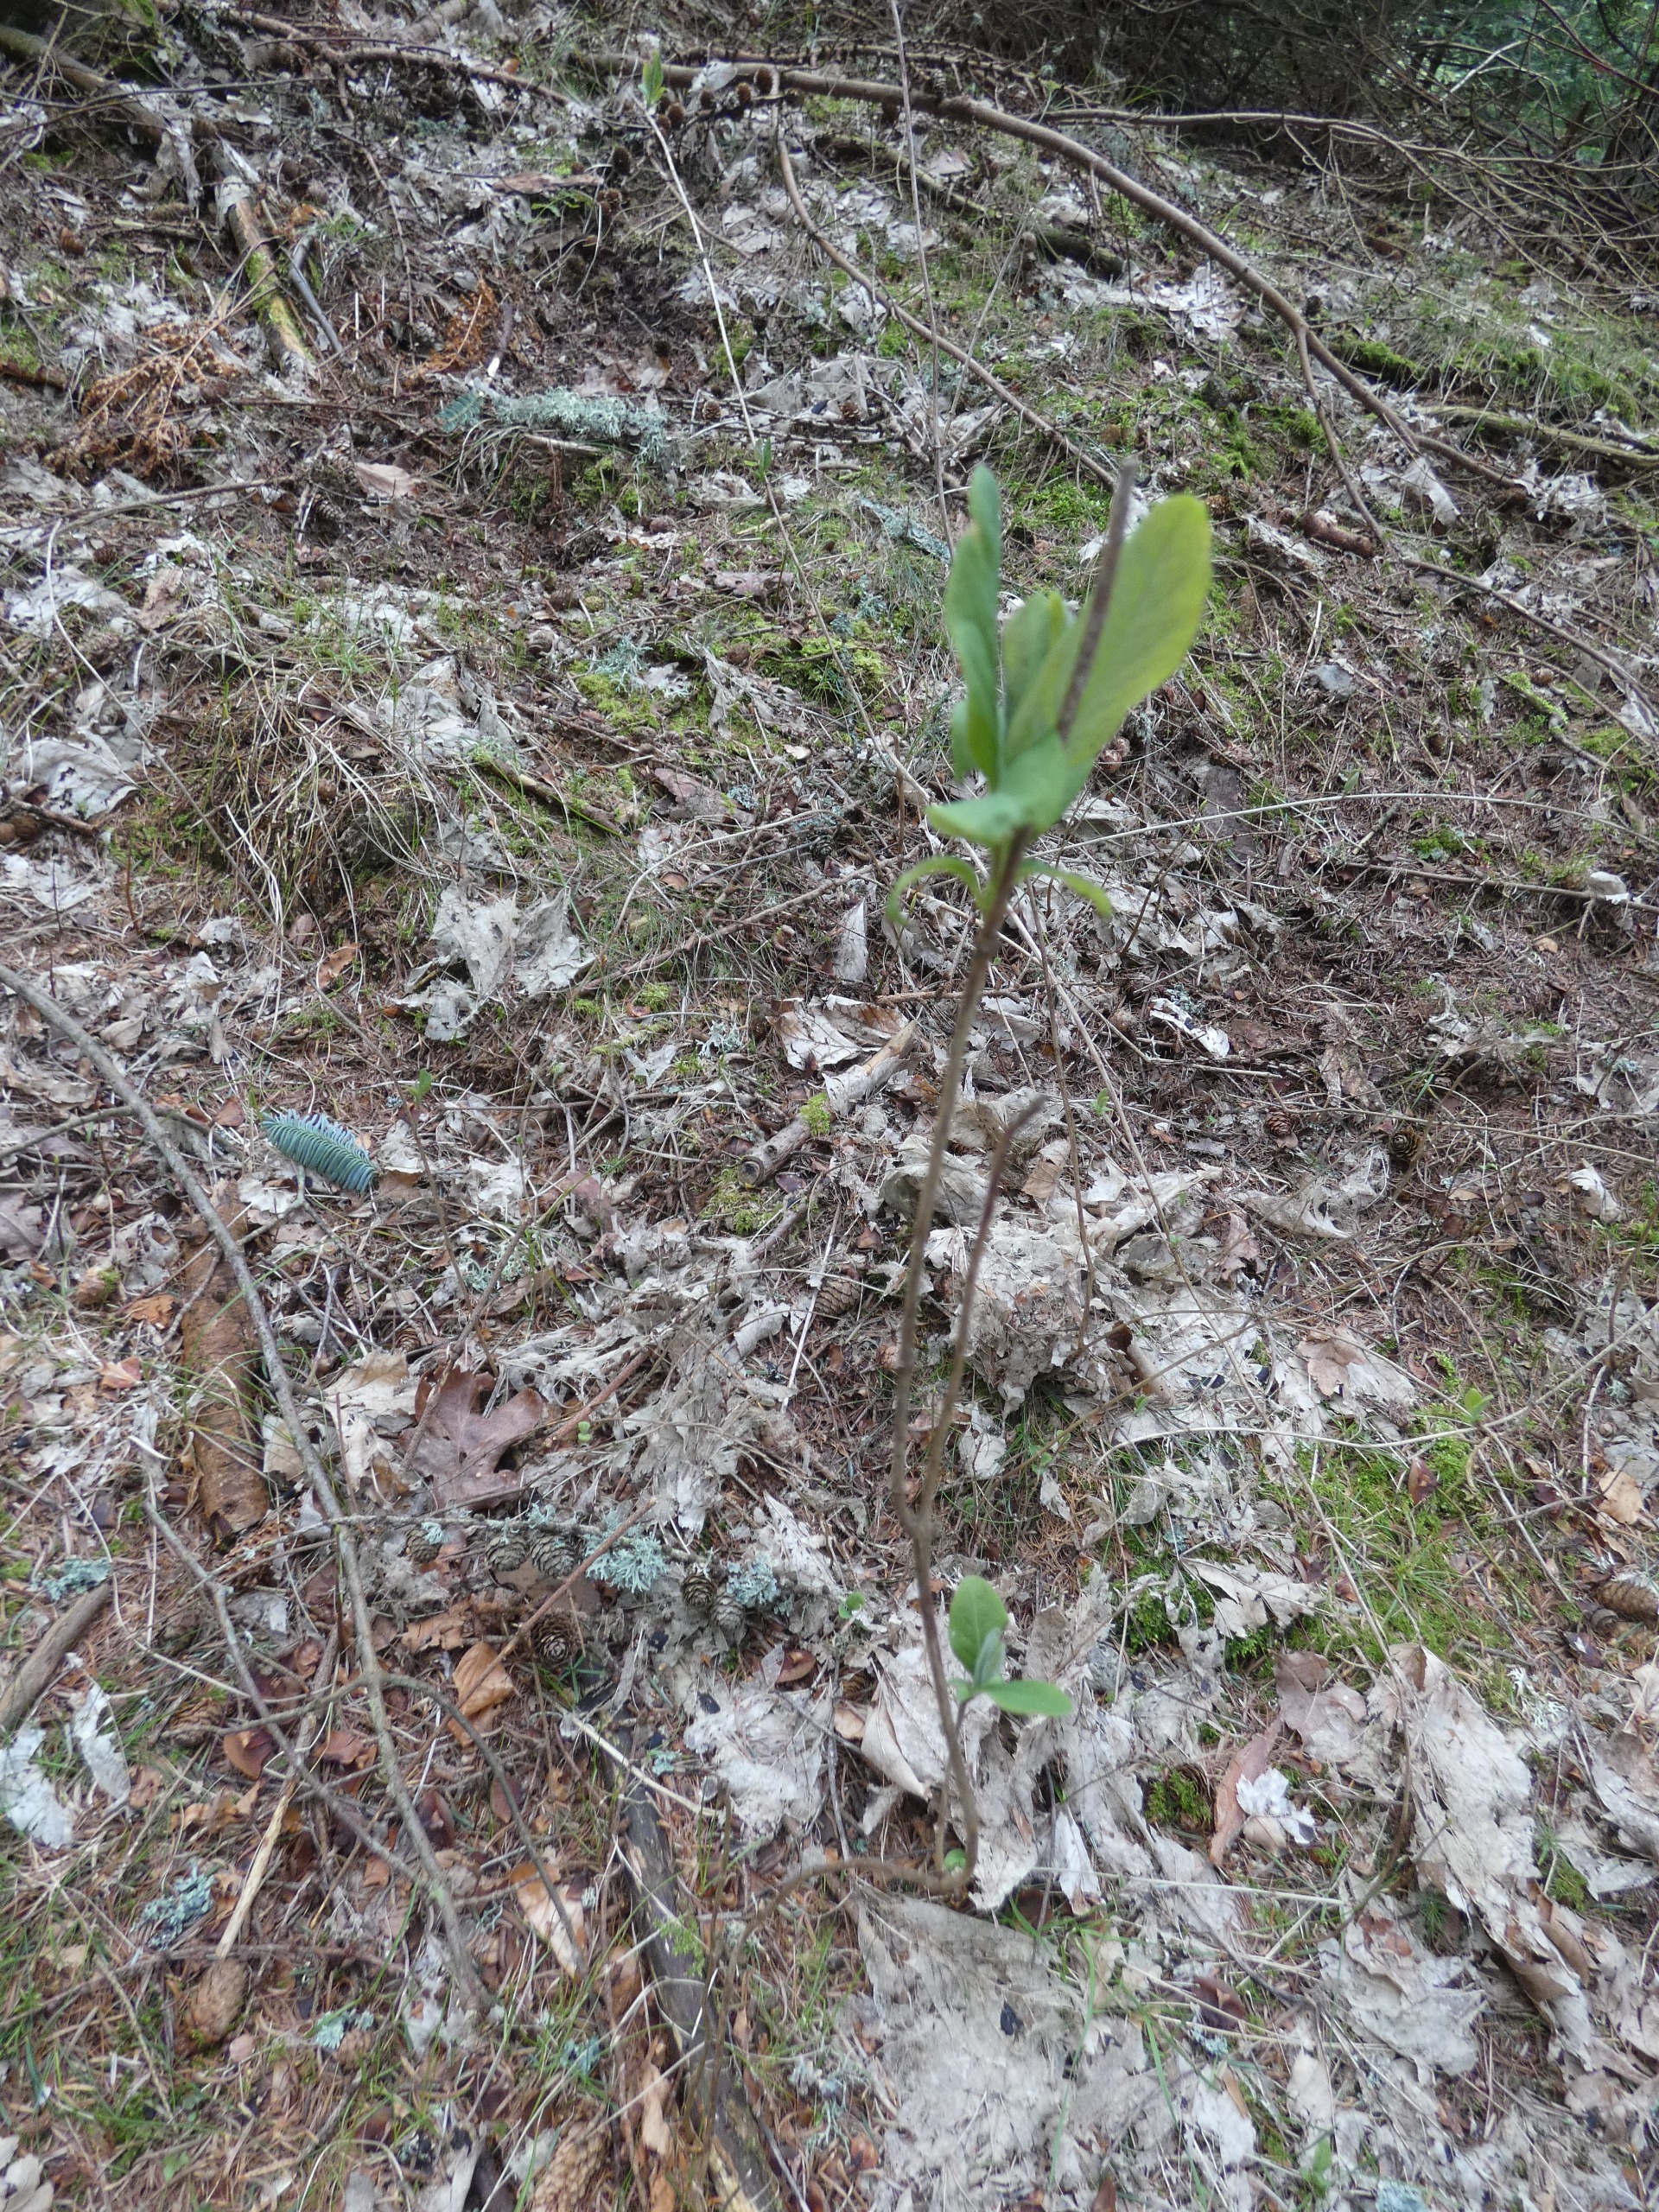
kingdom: Plantae
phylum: Tracheophyta
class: Magnoliopsida
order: Dipsacales
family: Caprifoliaceae
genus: Lonicera
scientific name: Lonicera periclymenum
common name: Almindelig gedeblad
